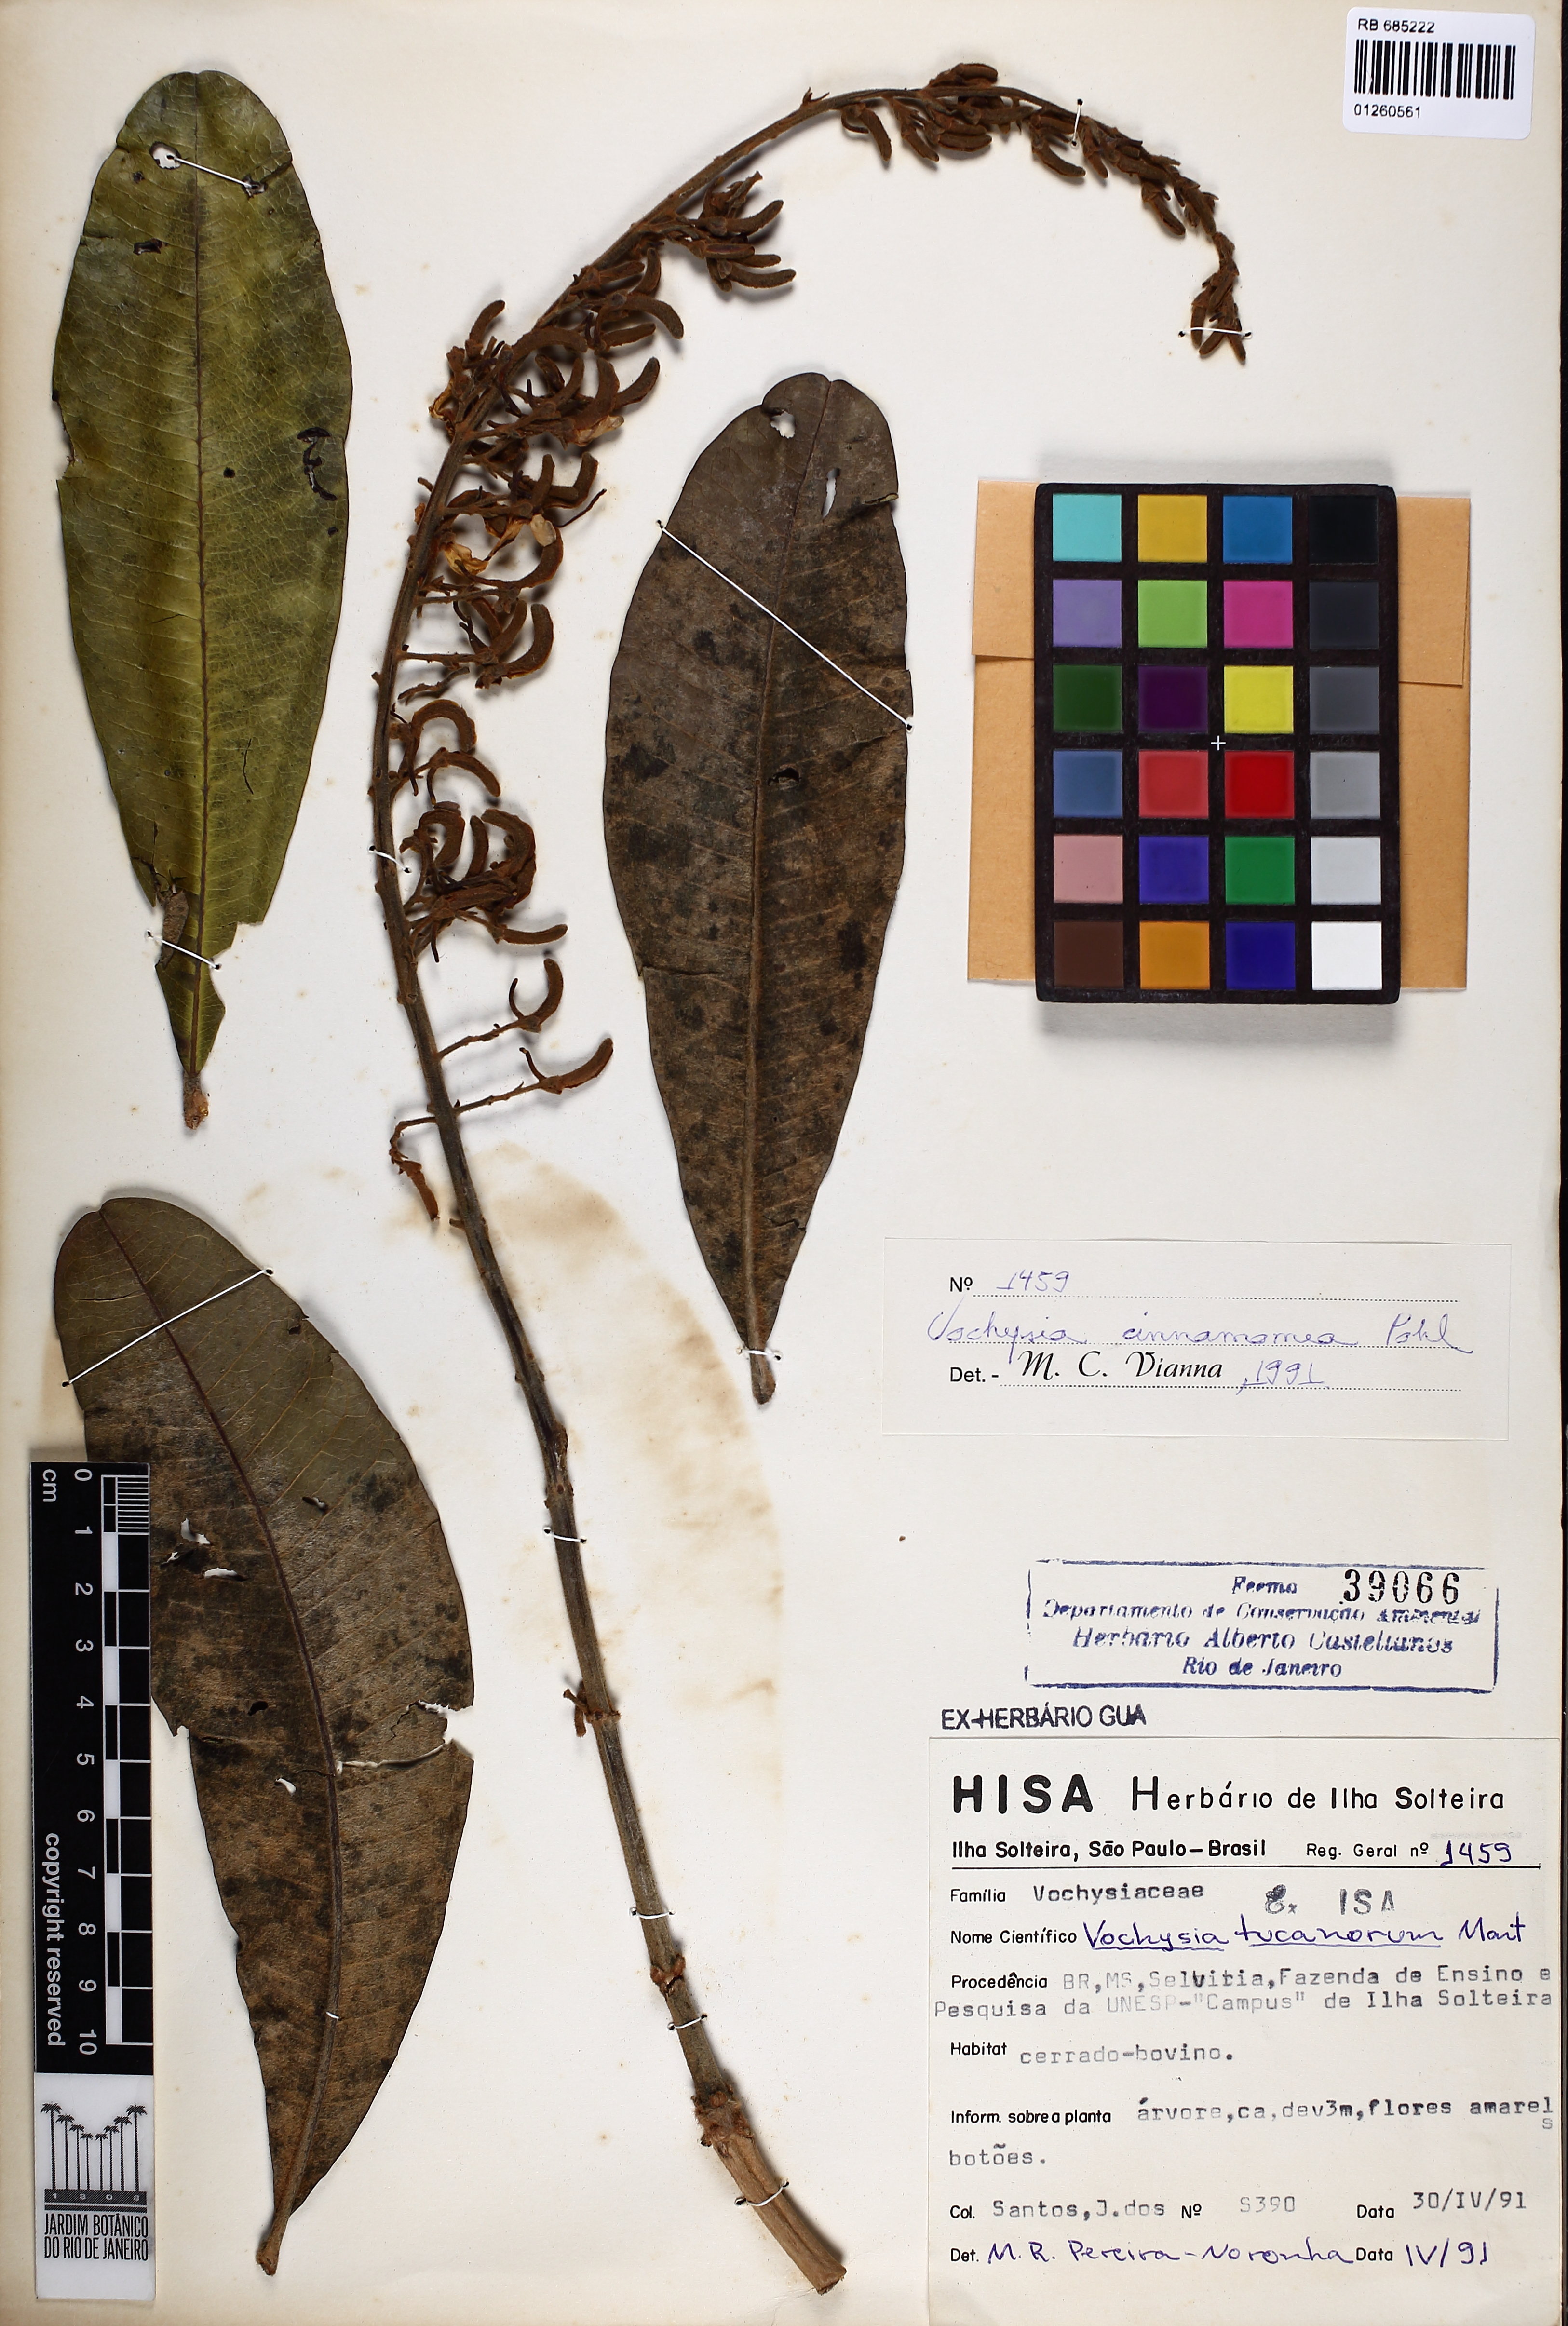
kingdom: Plantae
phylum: Tracheophyta
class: Magnoliopsida
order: Myrtales
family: Vochysiaceae
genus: Vochysia
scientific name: Vochysia cinnamomea
